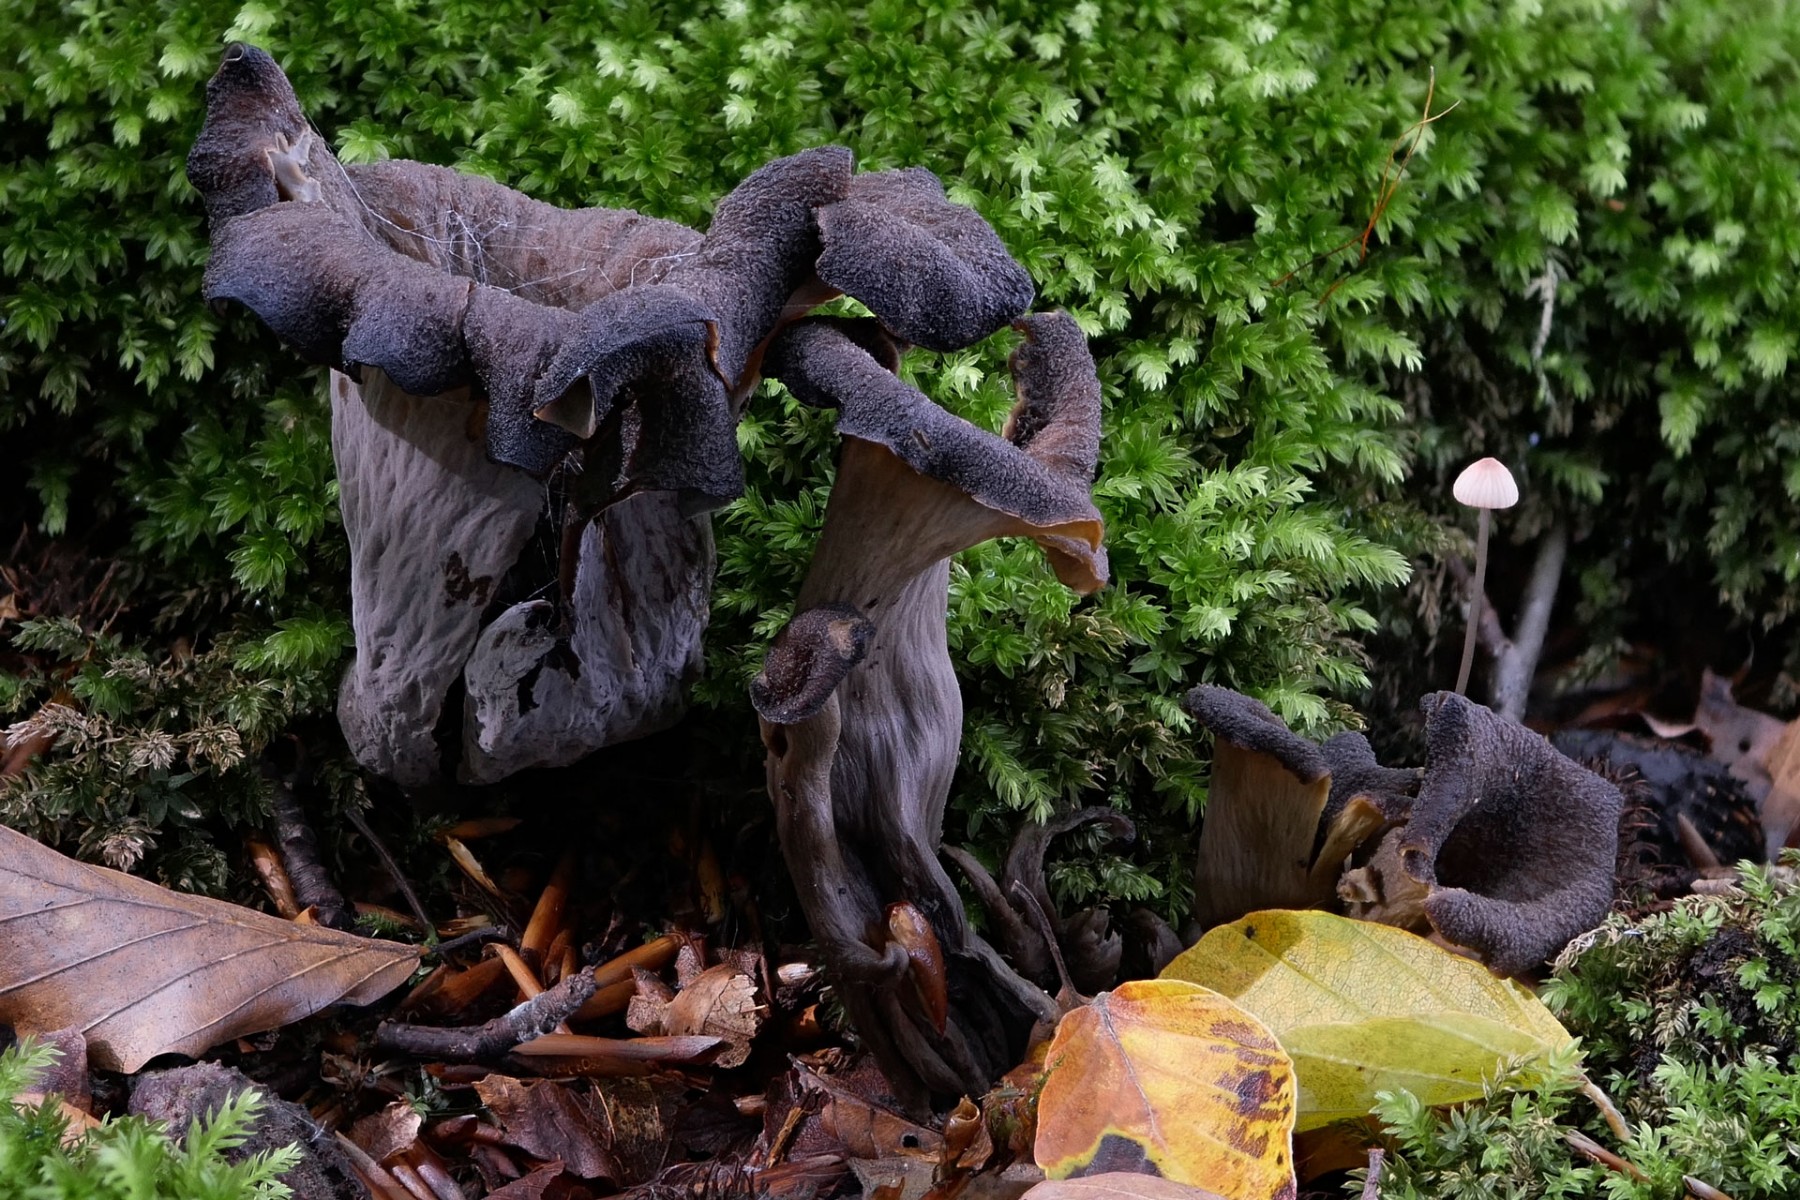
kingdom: Fungi
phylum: Basidiomycota
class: Agaricomycetes
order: Cantharellales
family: Hydnaceae
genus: Craterellus
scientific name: Craterellus cornucopioides
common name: trompetsvamp
